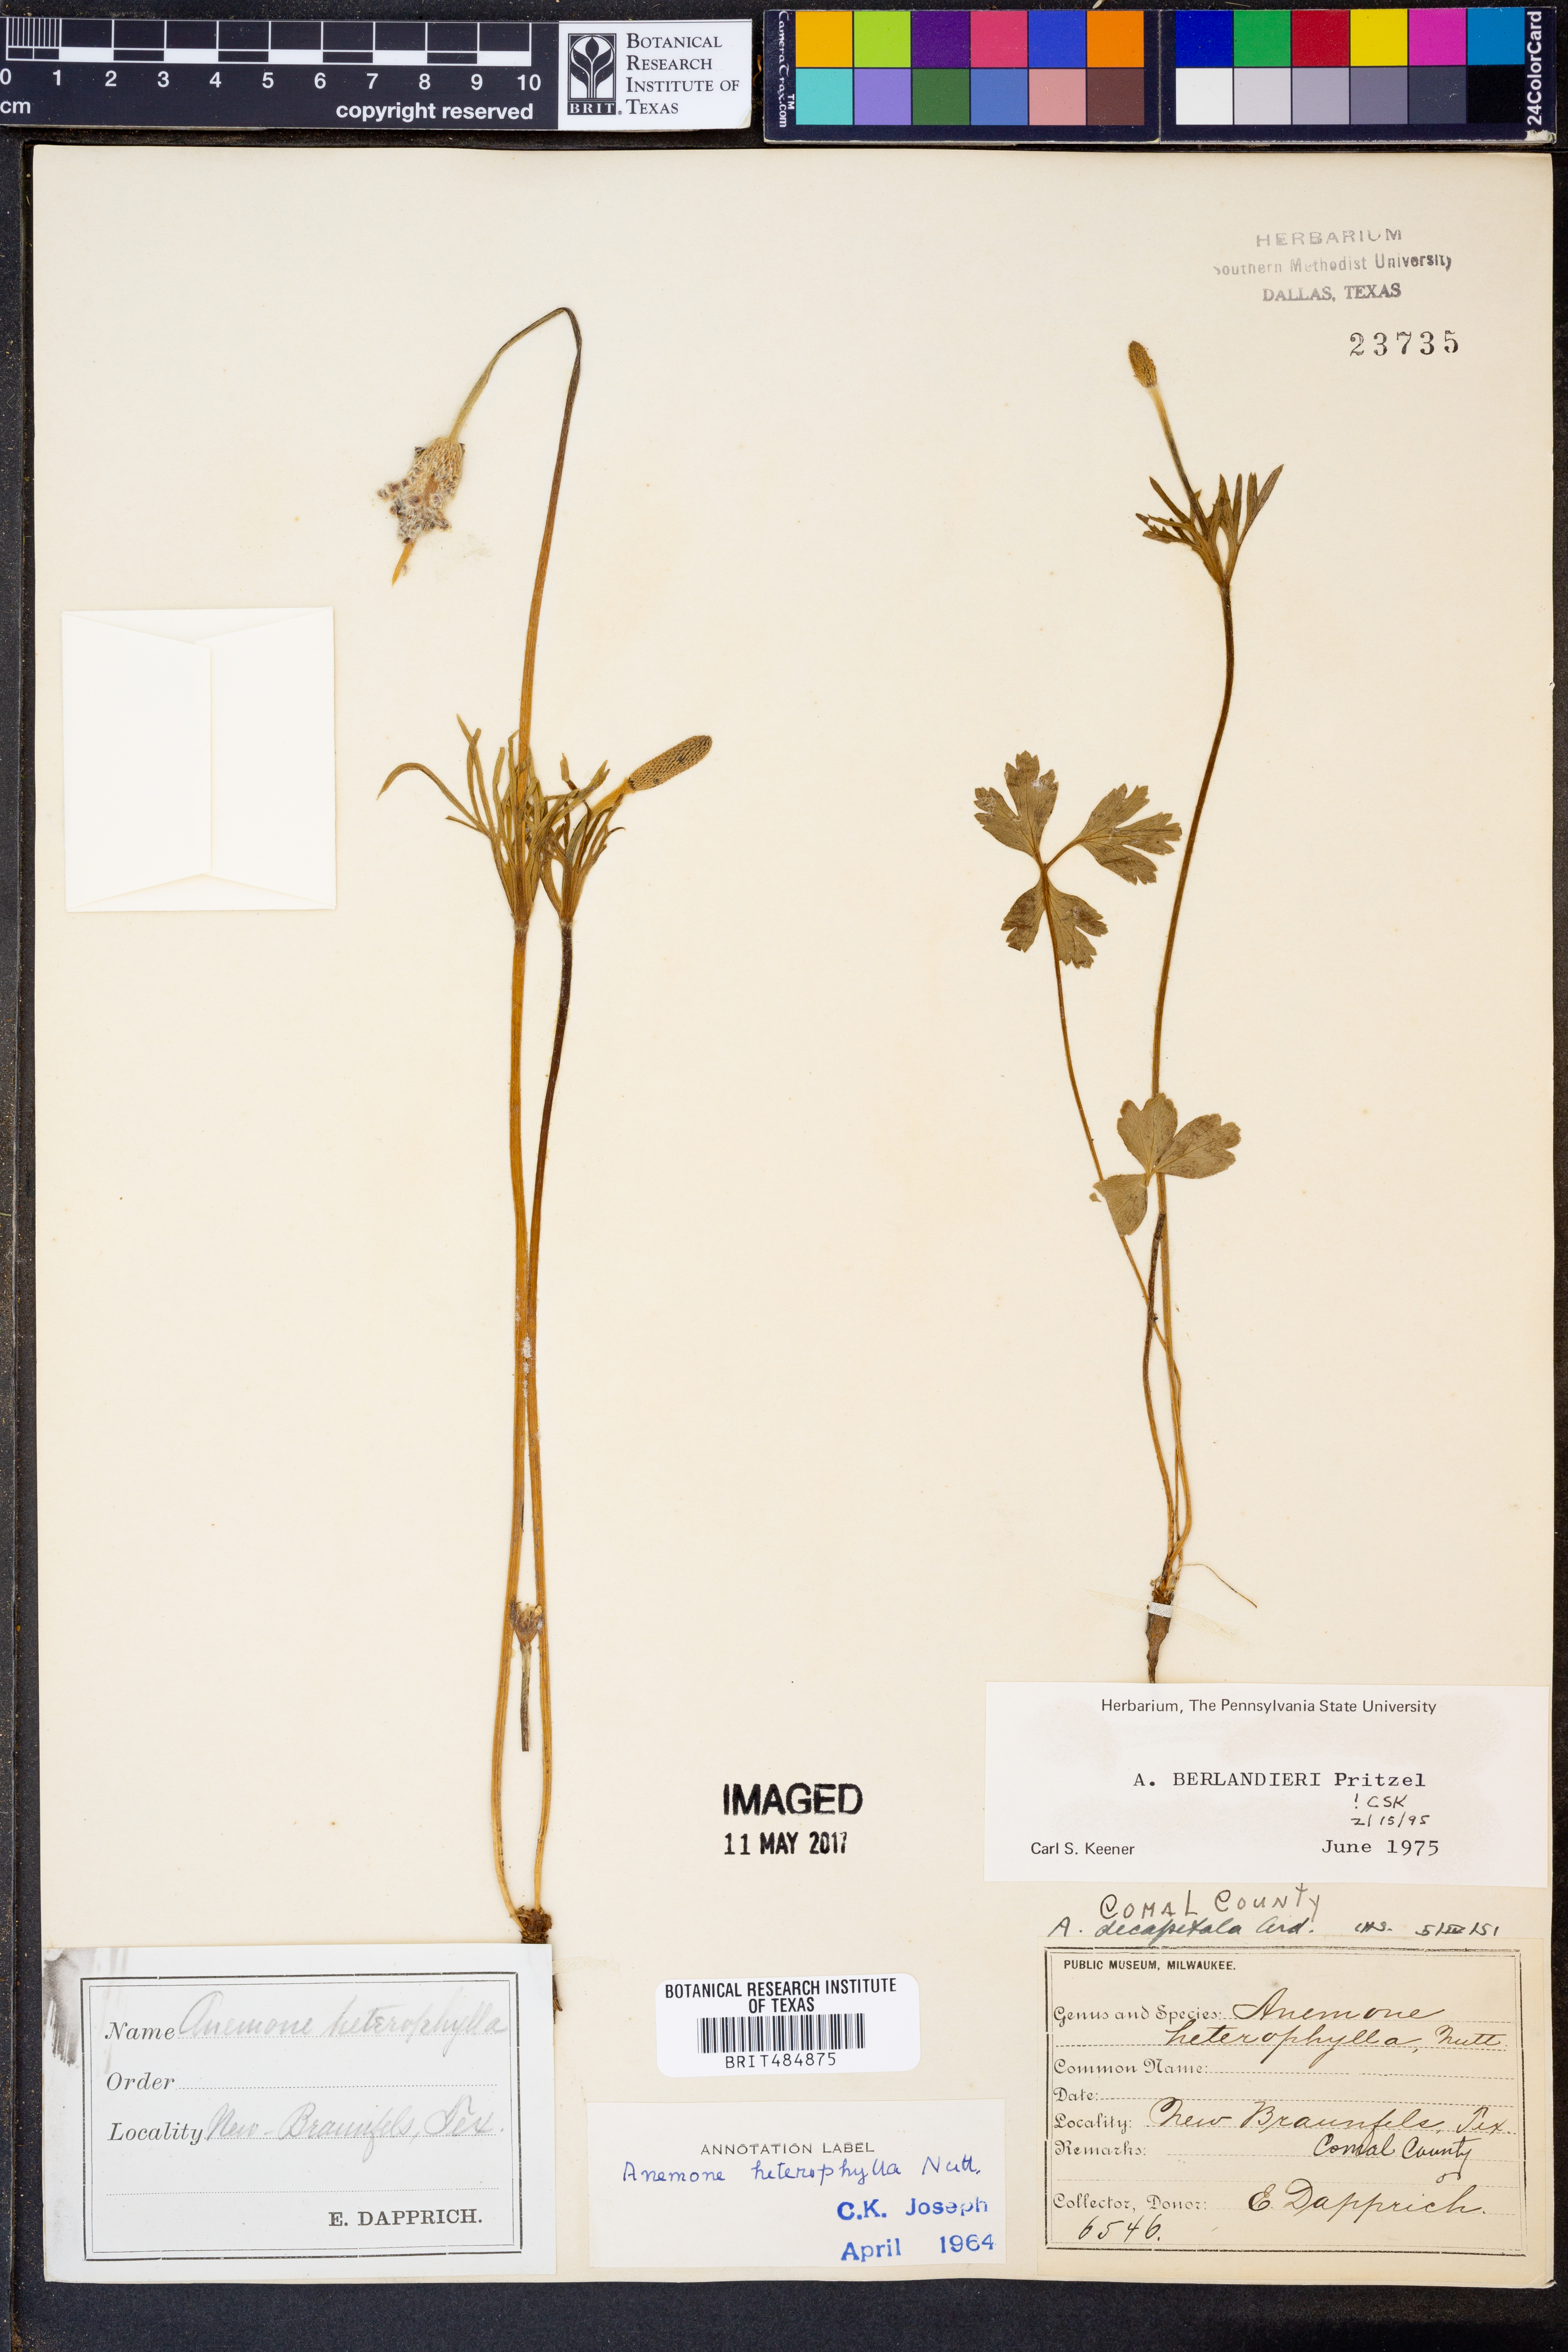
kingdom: Plantae
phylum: Tracheophyta
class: Magnoliopsida
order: Ranunculales
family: Ranunculaceae
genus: Anemone
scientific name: Anemone berlandieri
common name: Ten-petal anemone
